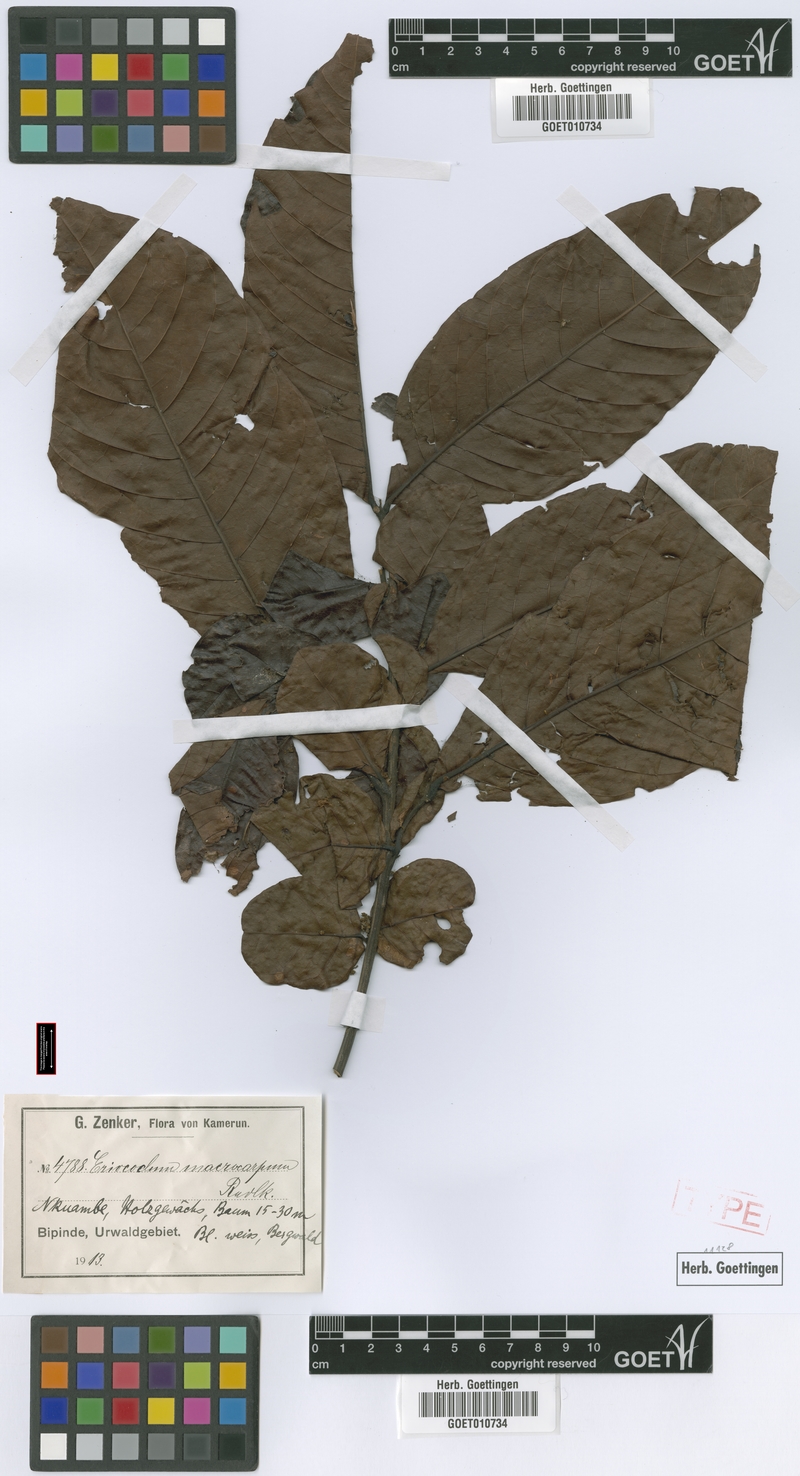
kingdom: Plantae
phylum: Tracheophyta
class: Magnoliopsida
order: Sapindales
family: Sapindaceae
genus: Eriocoelum
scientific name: Eriocoelum macrocarpum
